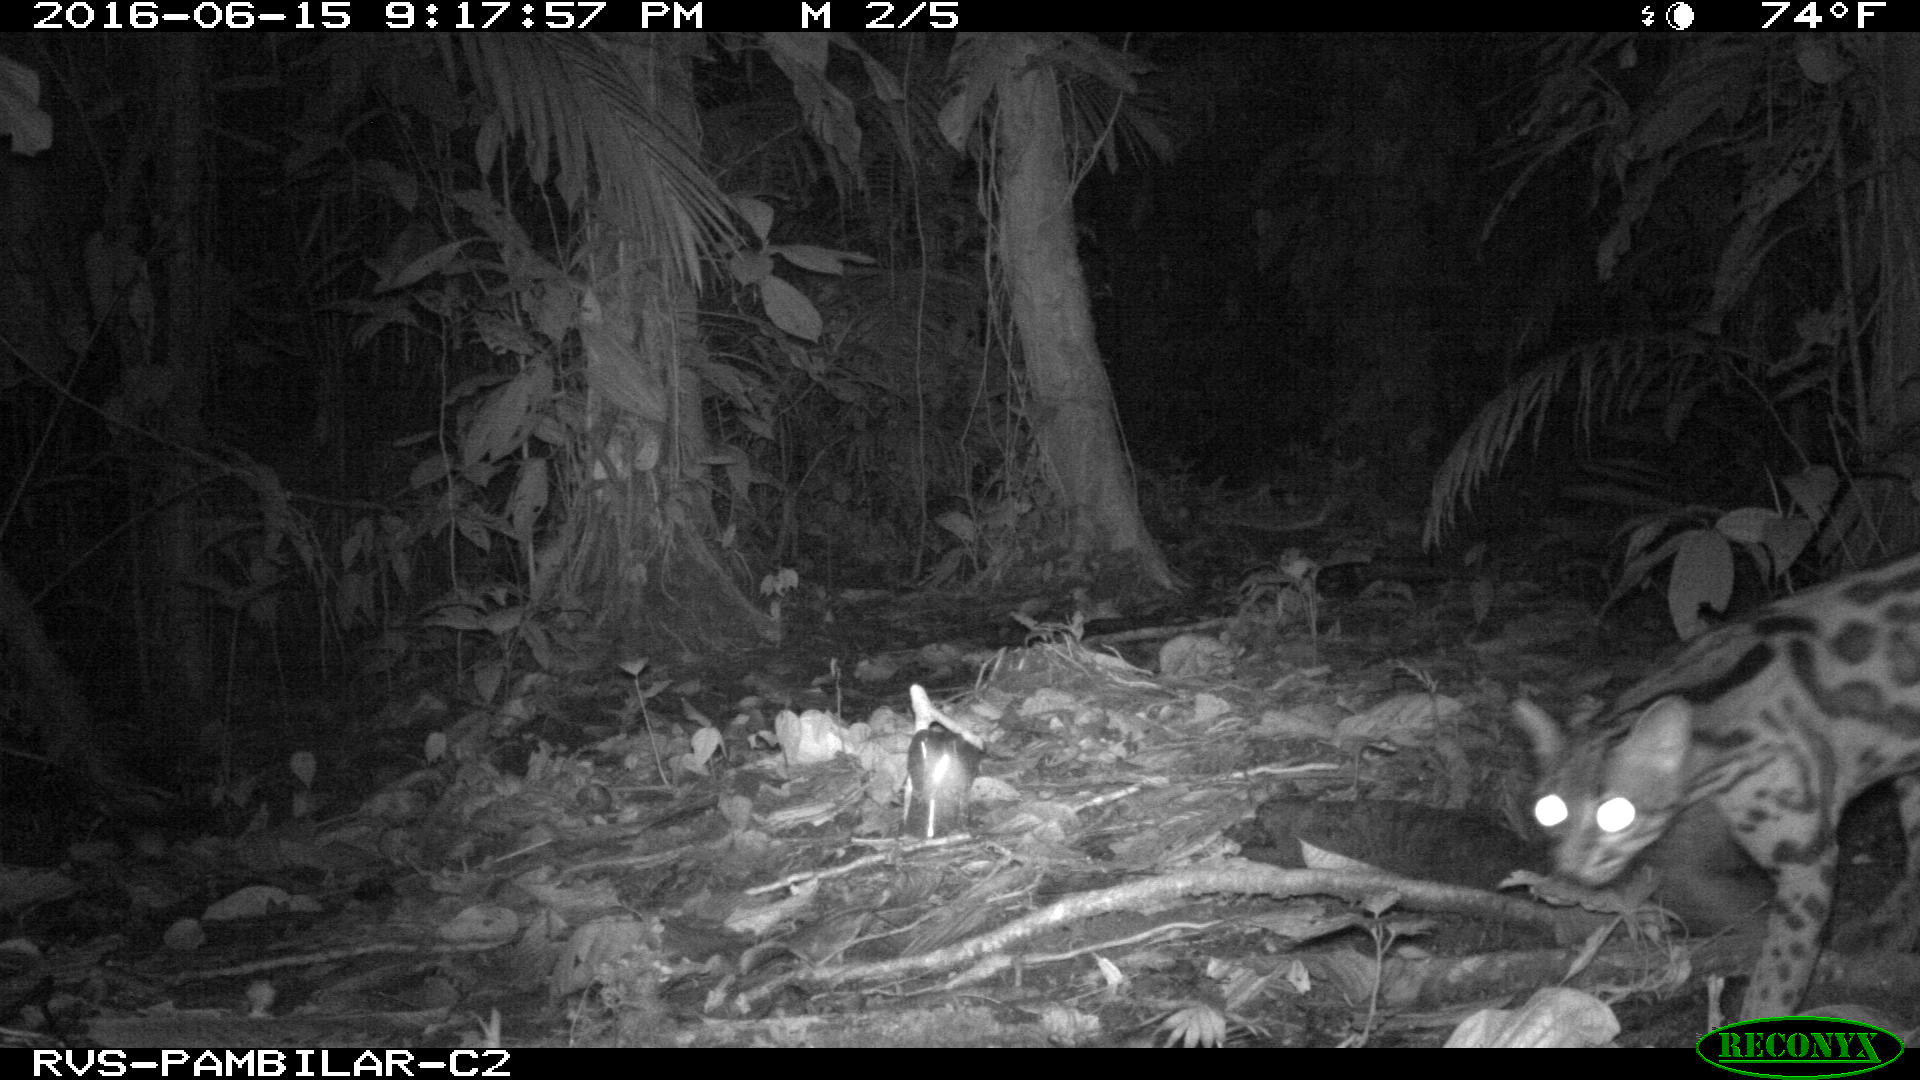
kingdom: Animalia
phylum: Chordata
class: Mammalia
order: Carnivora
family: Felidae
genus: Leopardus
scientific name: Leopardus pardalis
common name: Ocelot
